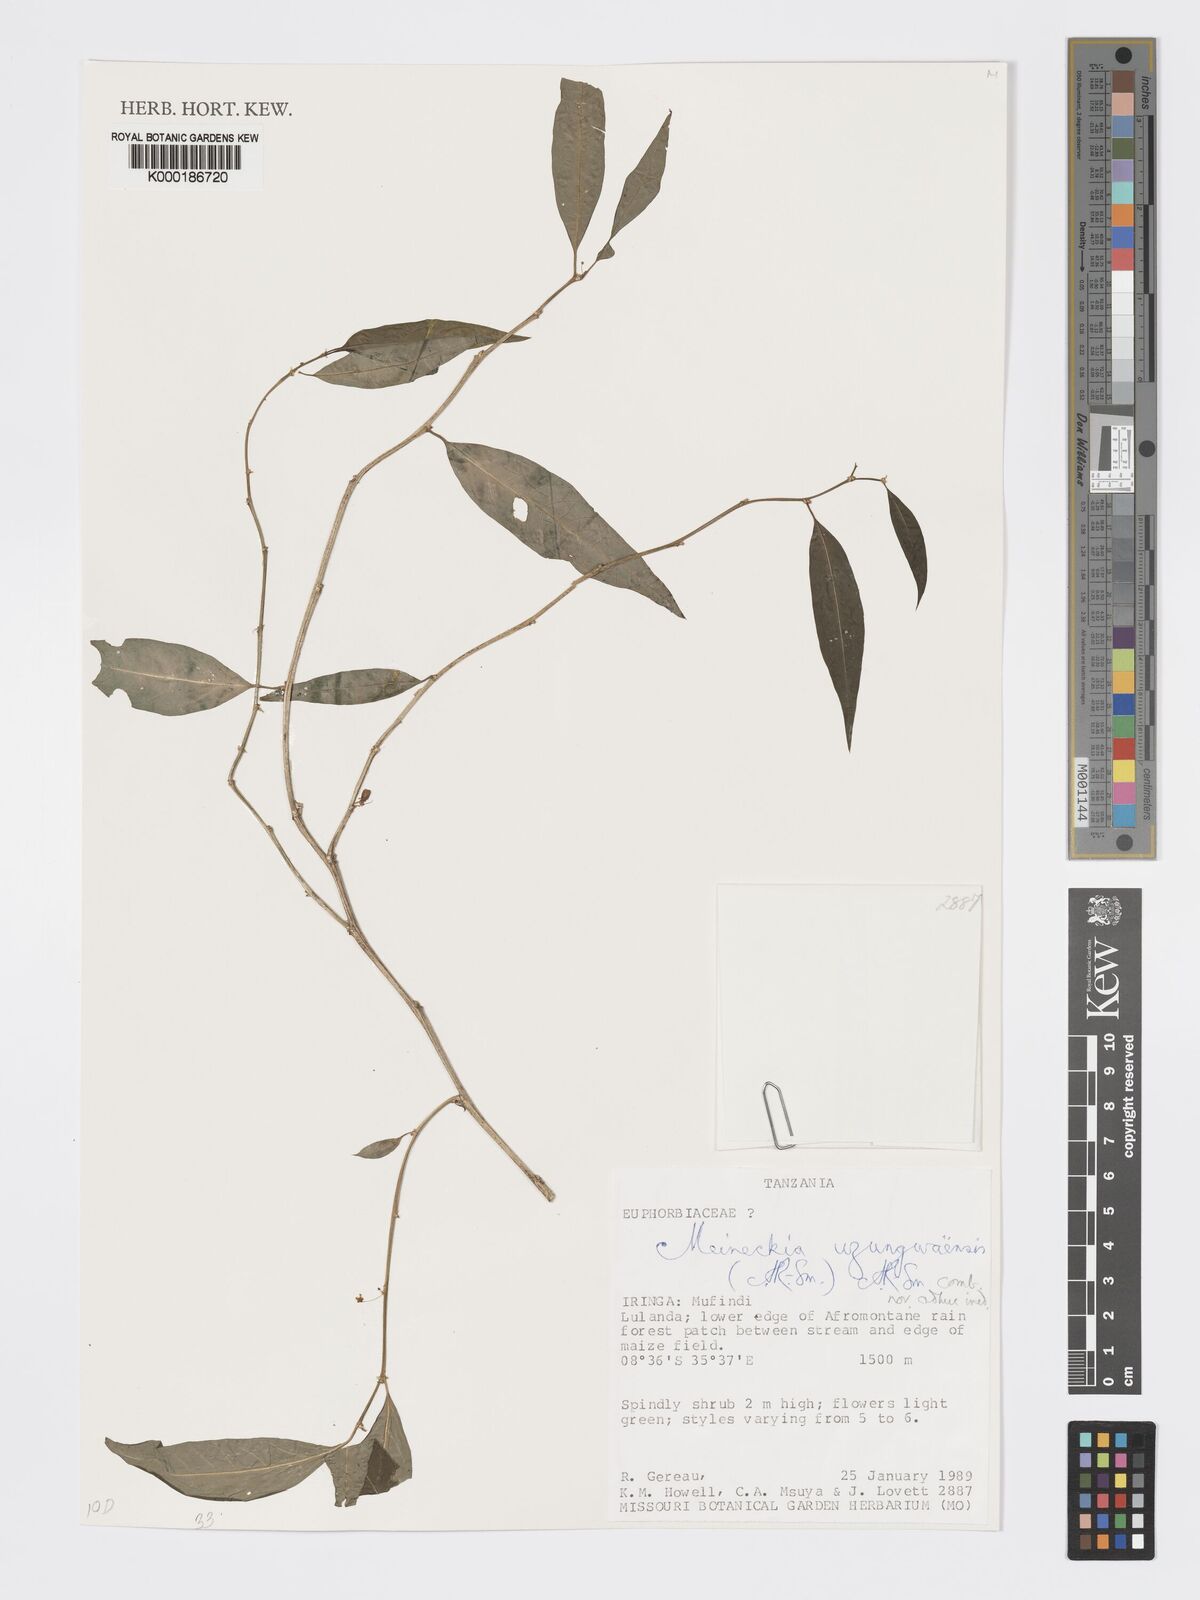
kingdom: Plantae
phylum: Tracheophyta
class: Magnoliopsida
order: Malpighiales
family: Phyllanthaceae
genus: Meineckia
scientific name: Meineckia uzungwaensis
